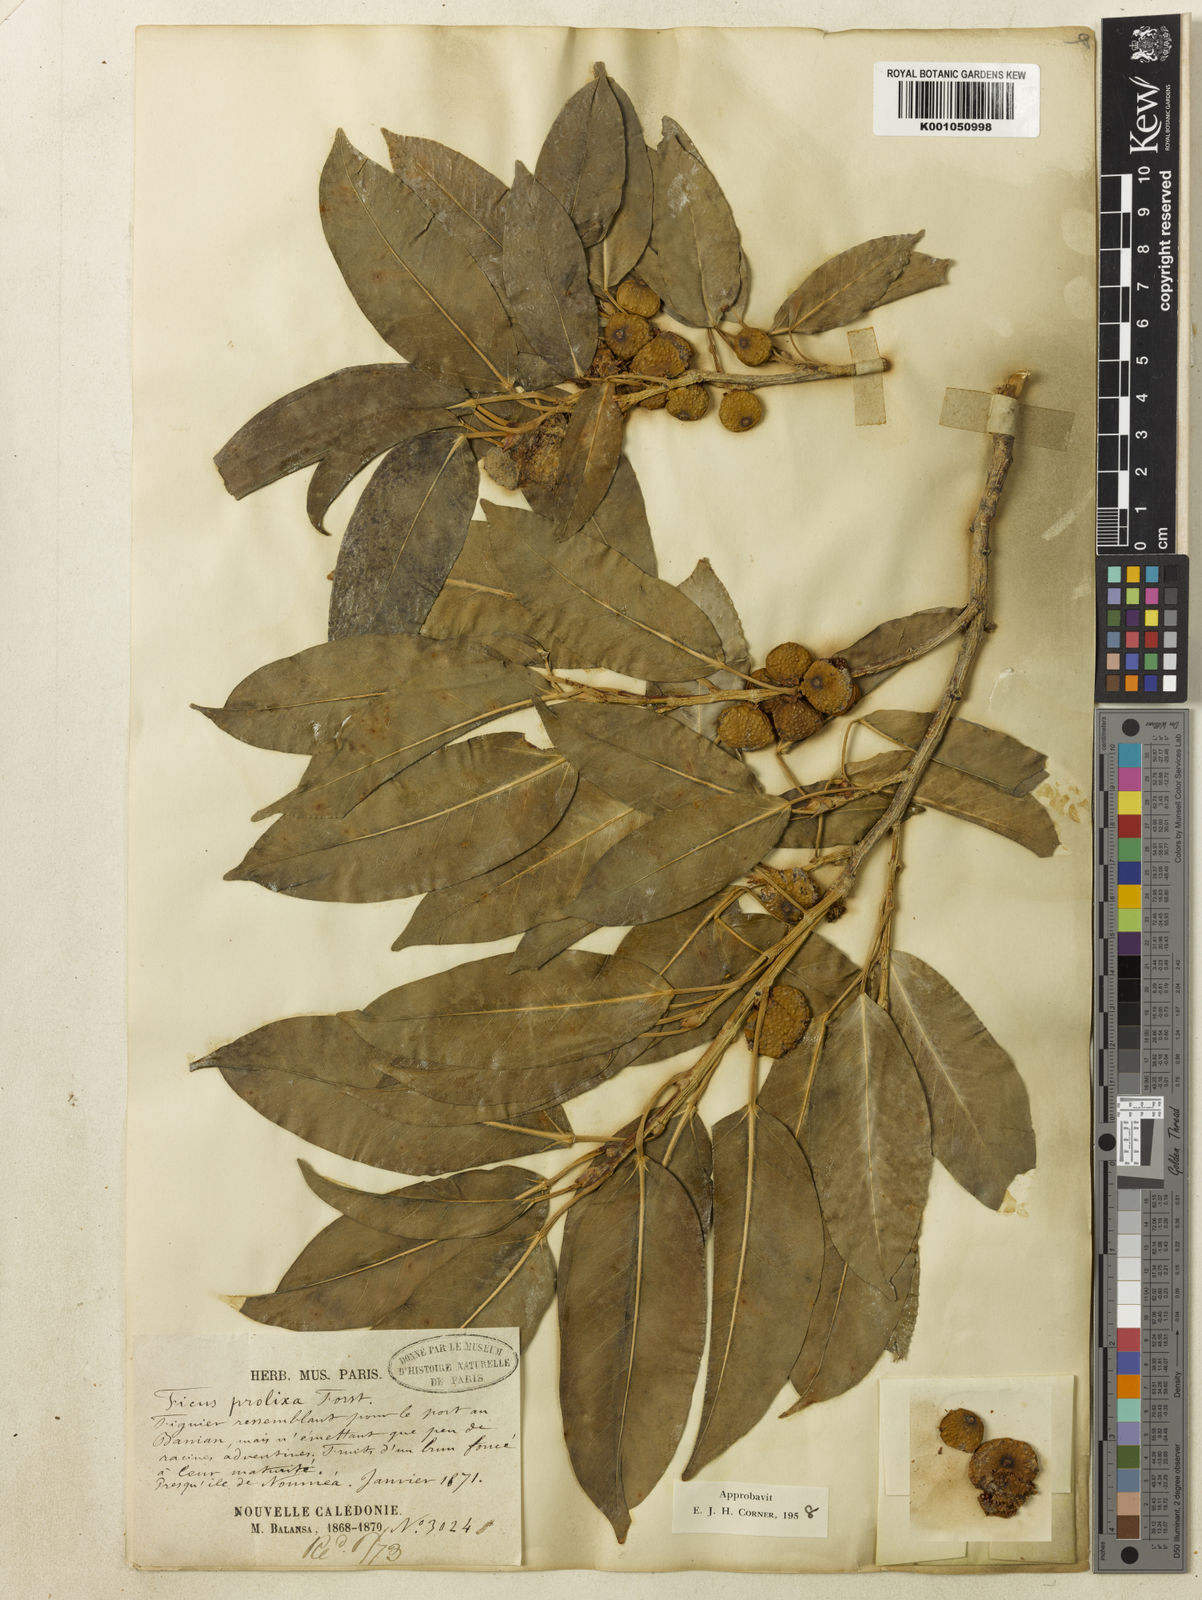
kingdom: Plantae
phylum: Tracheophyta
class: Magnoliopsida
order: Rosales
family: Moraceae
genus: Ficus
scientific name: Ficus prolixa
